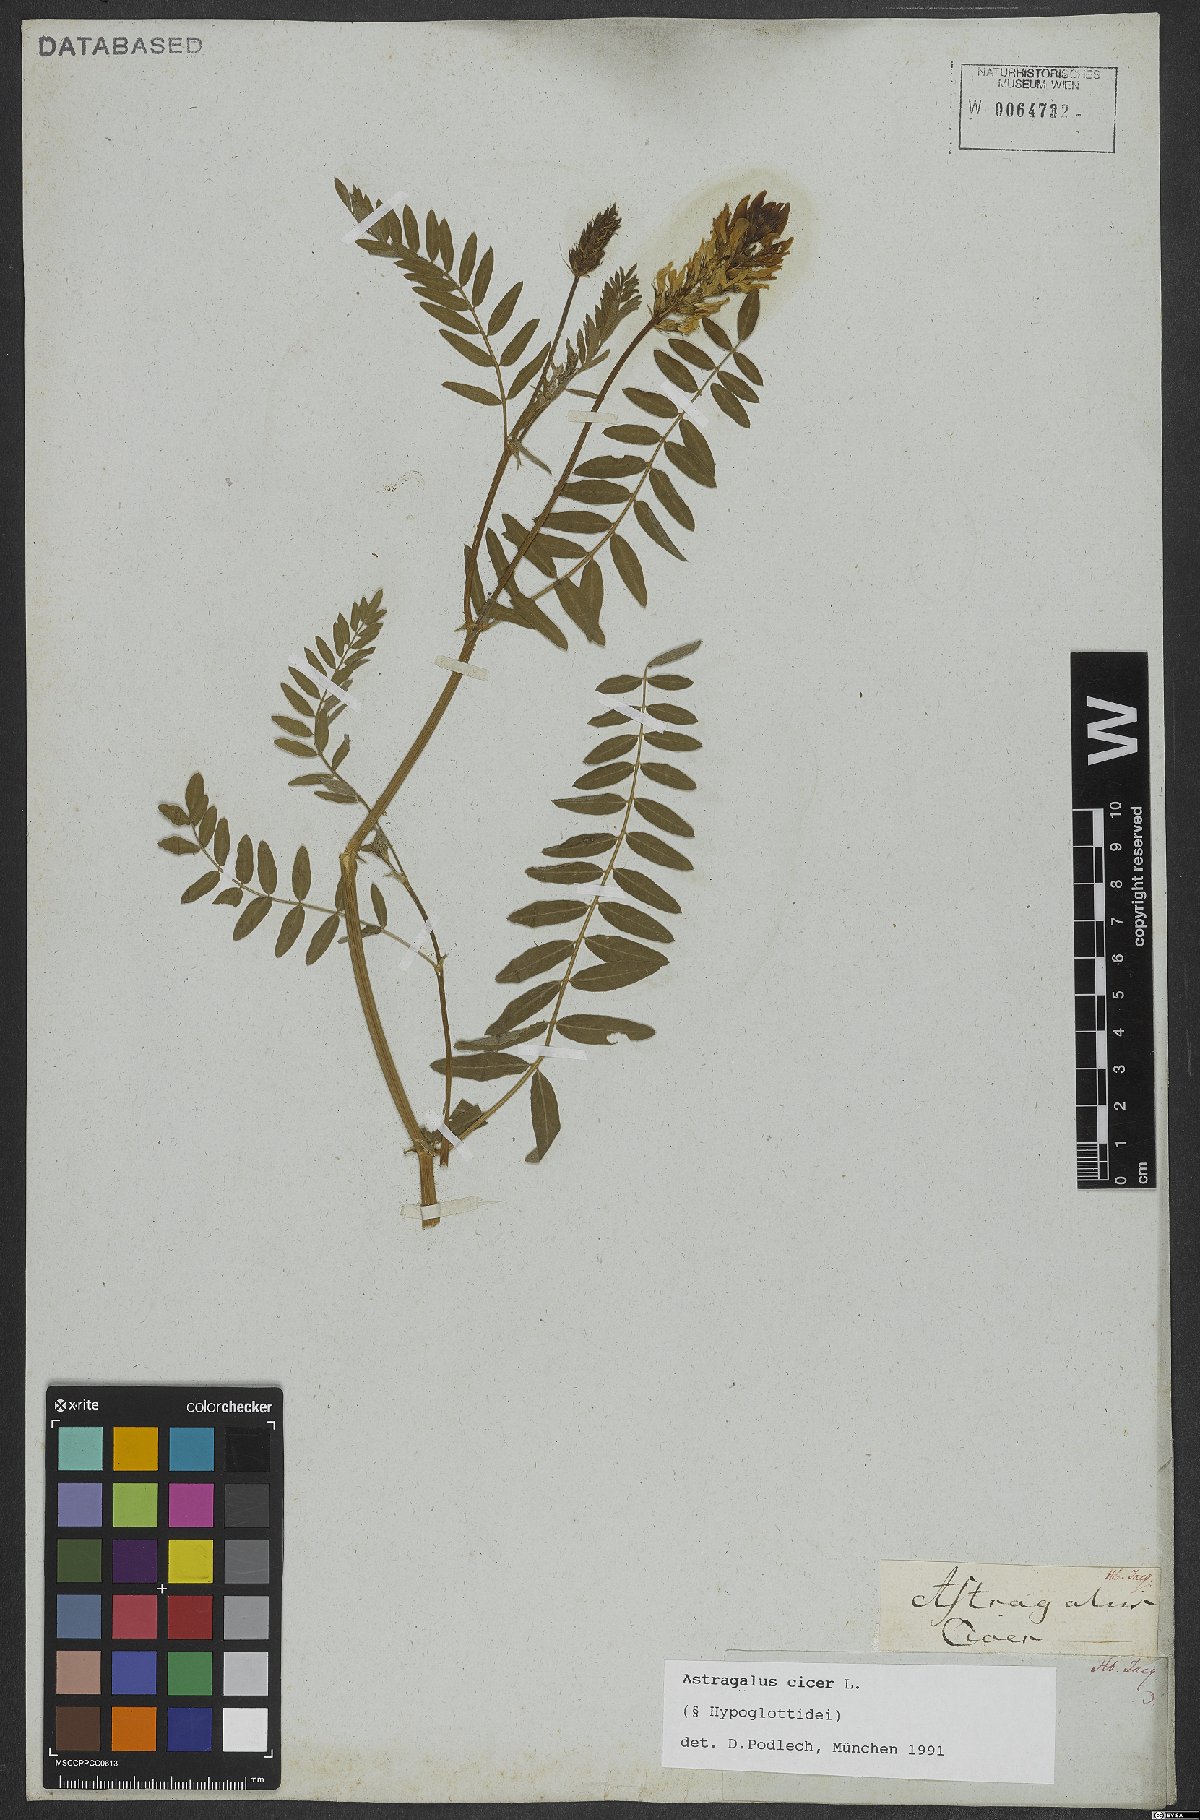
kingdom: Plantae
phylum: Tracheophyta
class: Magnoliopsida
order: Fabales
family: Fabaceae
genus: Astragalus
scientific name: Astragalus cicer
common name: Chick-pea milk-vetch
